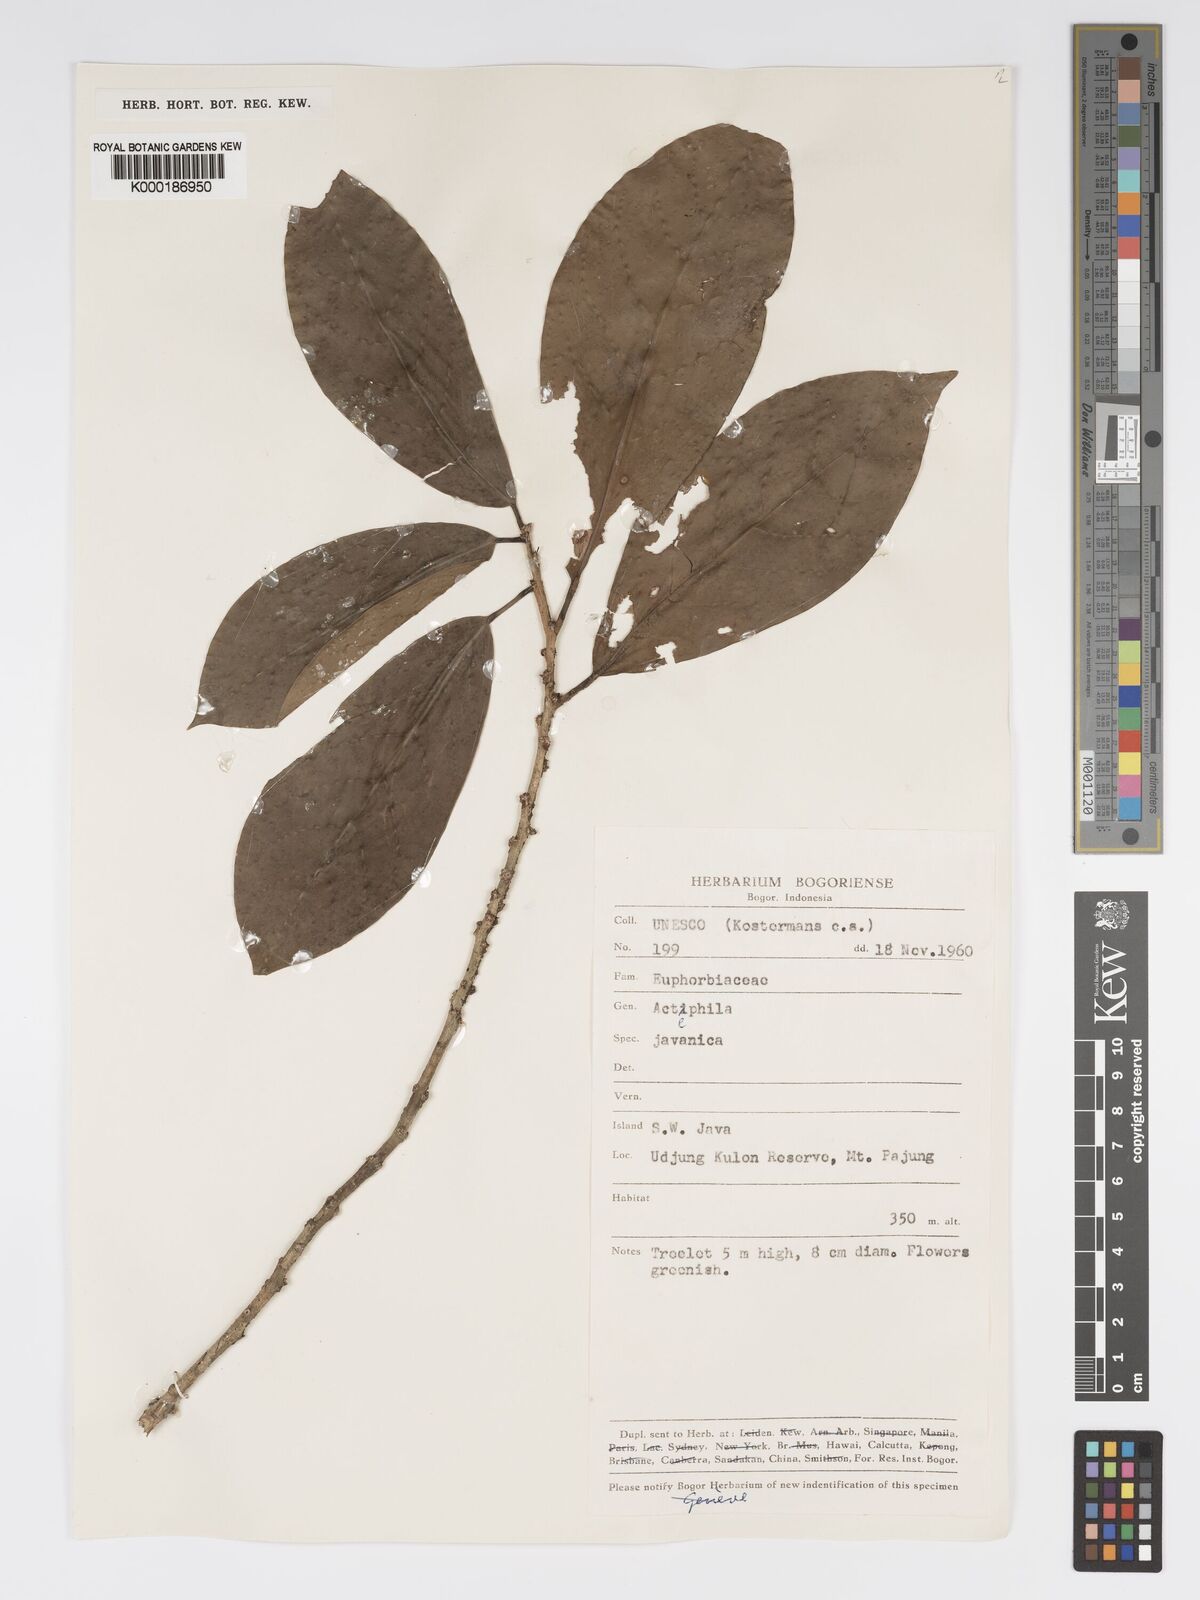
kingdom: Plantae
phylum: Tracheophyta
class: Magnoliopsida
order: Malpighiales
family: Phyllanthaceae
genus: Actephila
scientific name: Actephila
